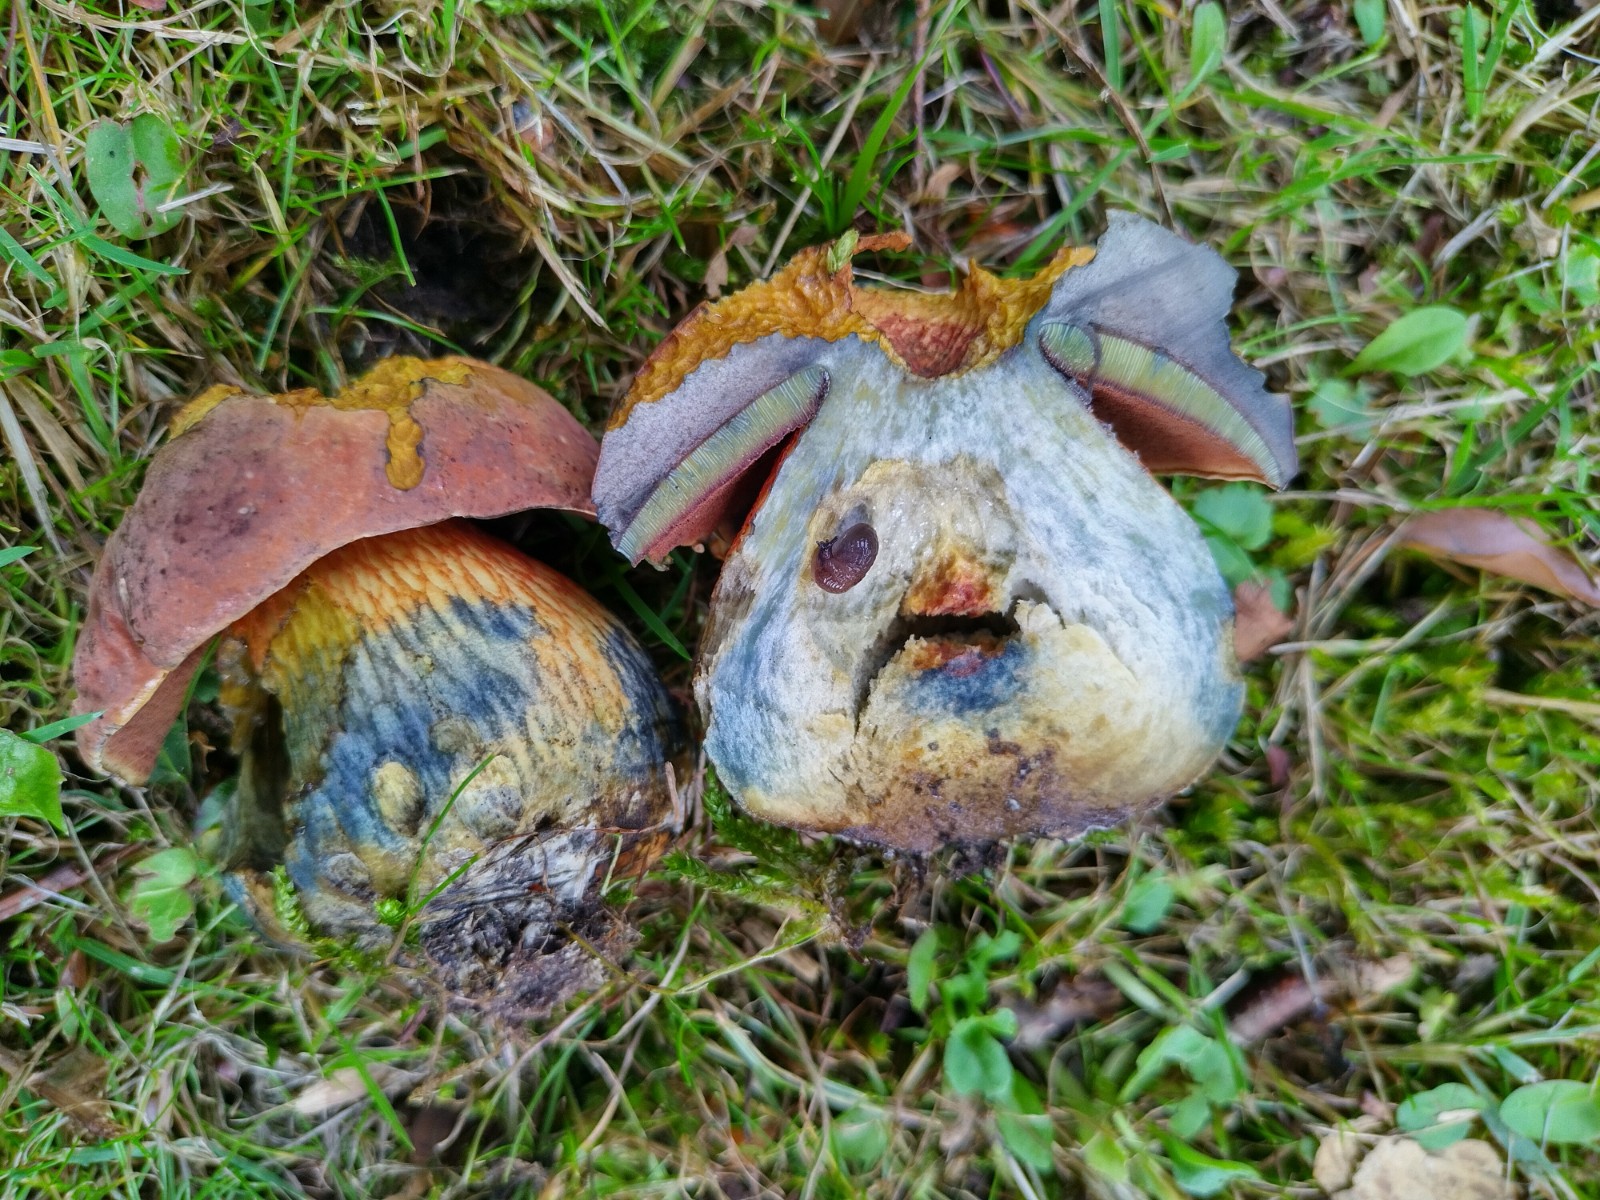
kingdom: Fungi
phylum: Basidiomycota
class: Agaricomycetes
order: Boletales
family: Boletaceae
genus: Suillellus
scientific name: Suillellus luridus
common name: netstokket indigorørhat
